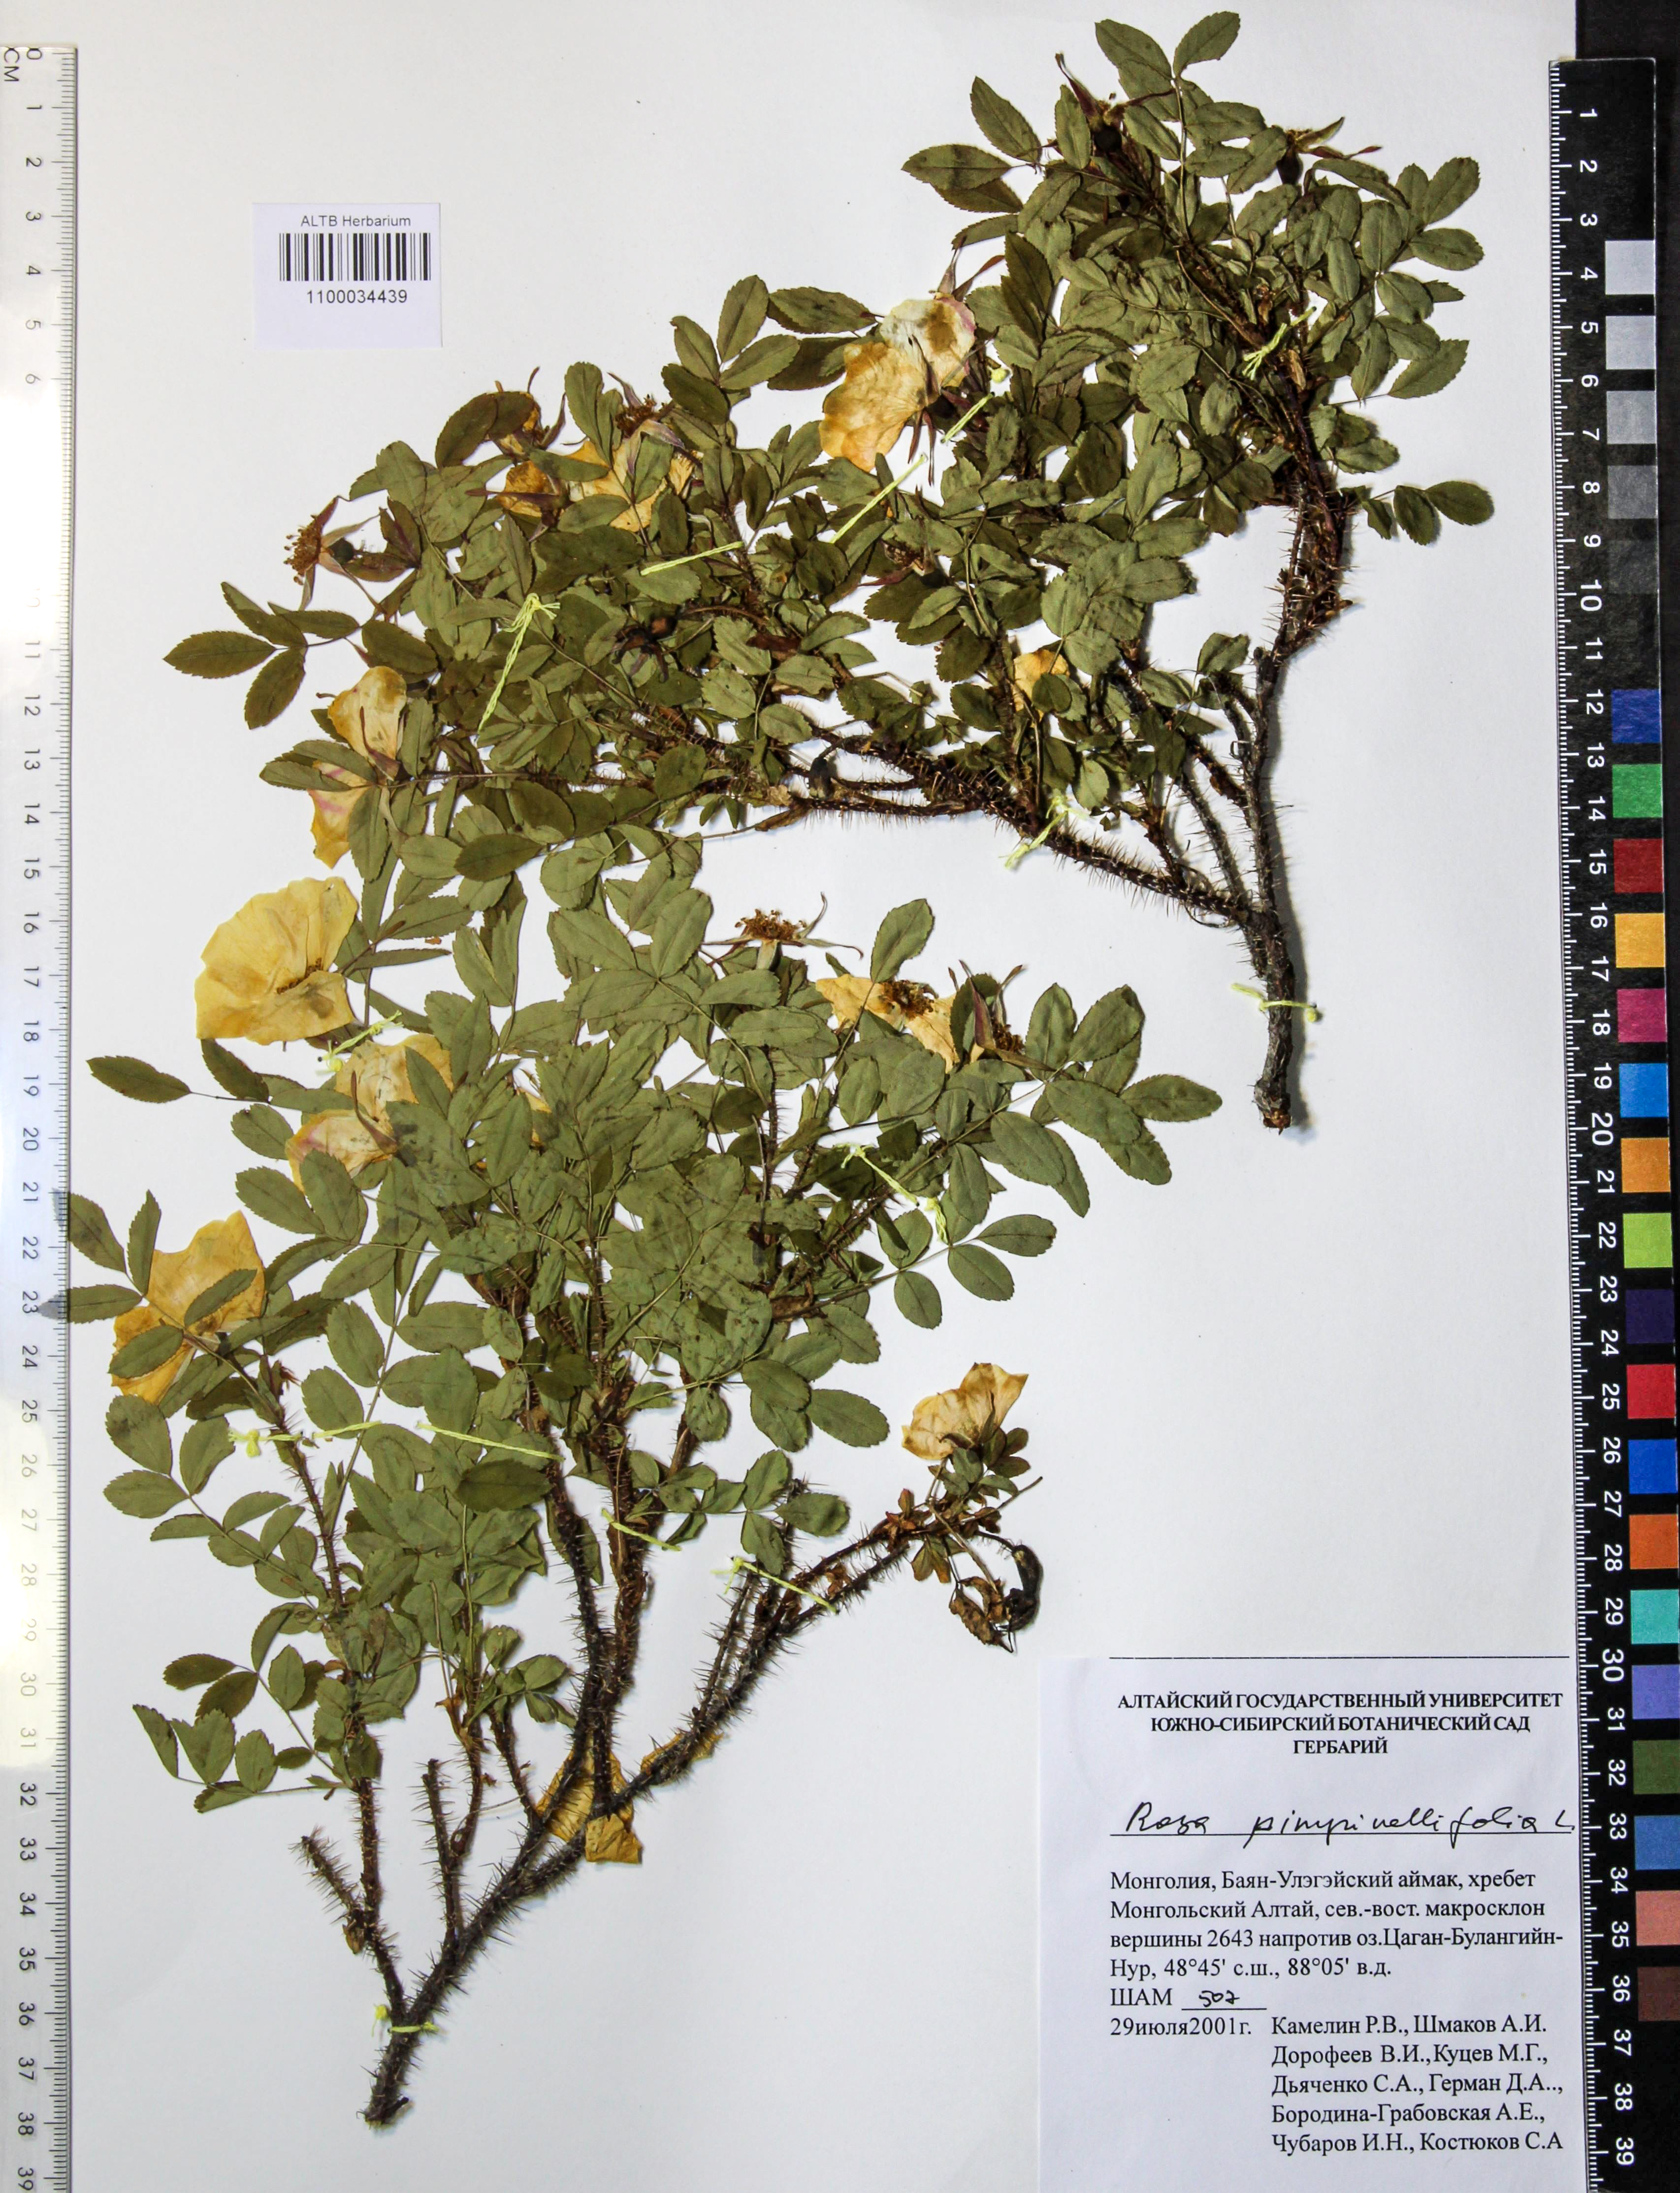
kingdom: Plantae
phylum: Tracheophyta
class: Magnoliopsida
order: Rosales
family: Rosaceae
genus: Rosa
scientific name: Rosa spinosissima
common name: Burnet rose
